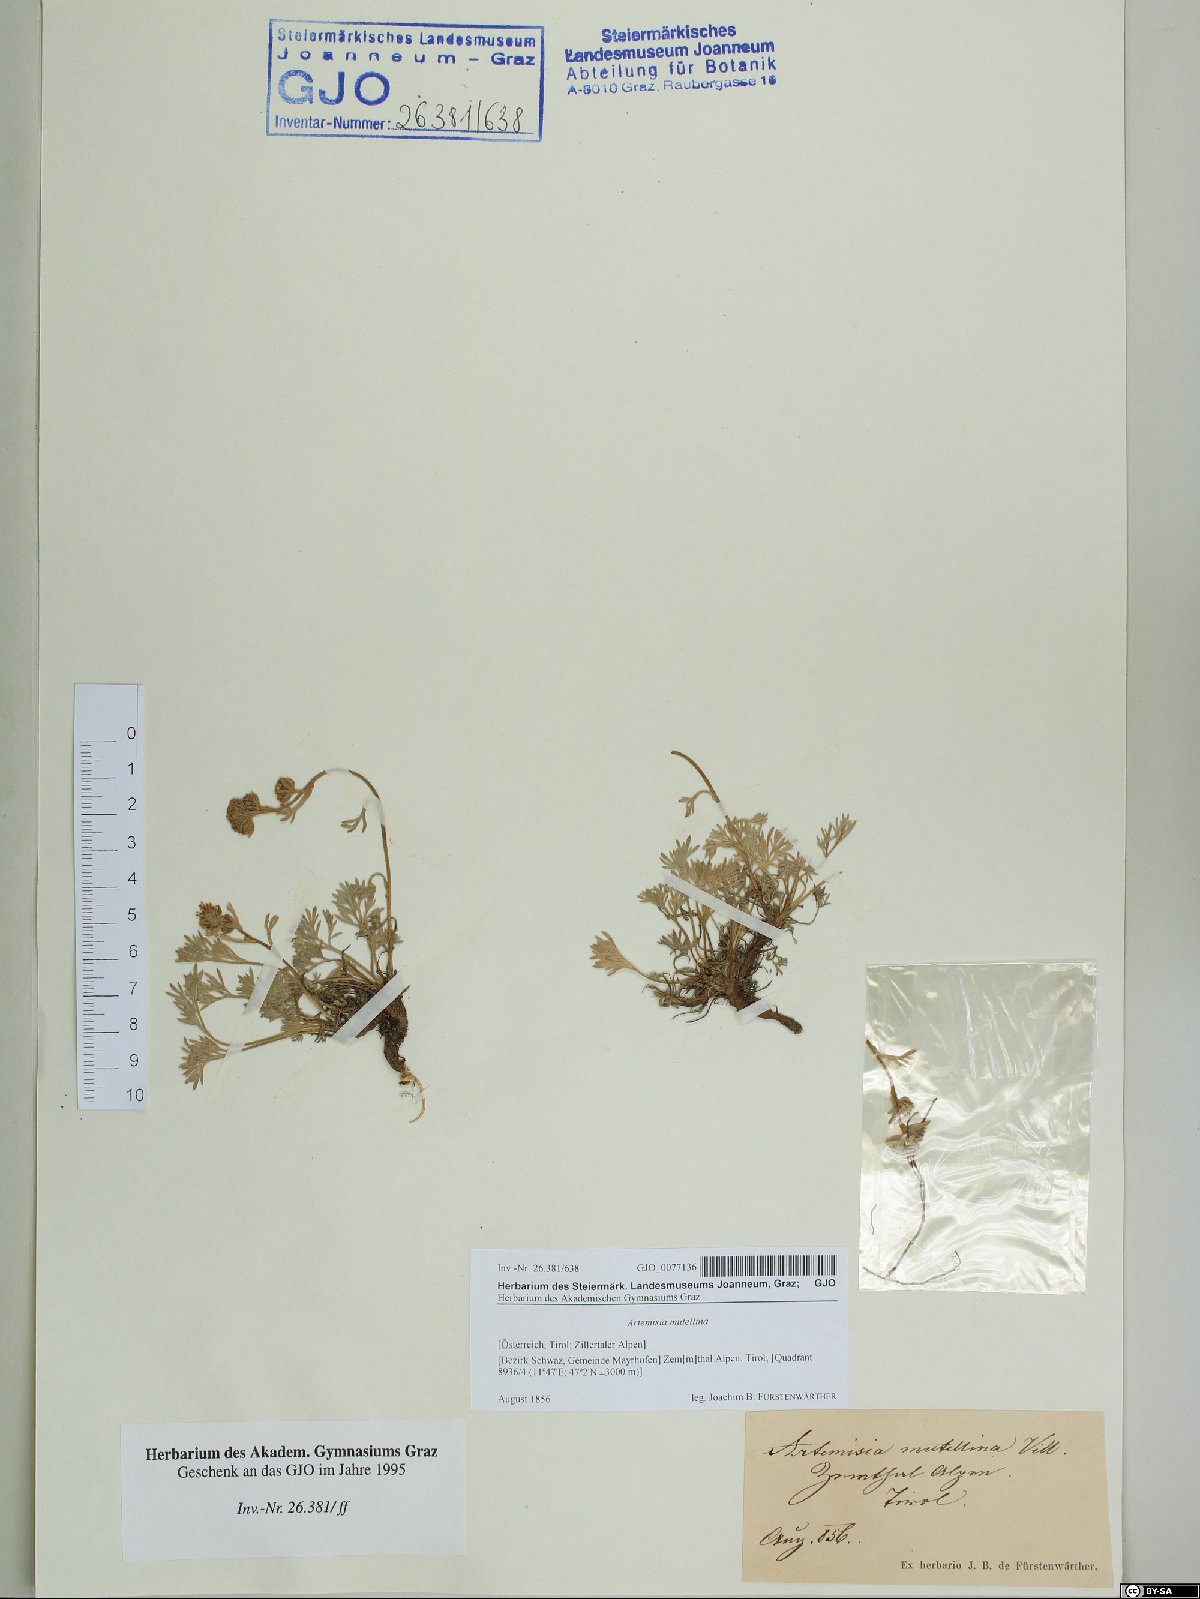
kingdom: Plantae
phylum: Tracheophyta
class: Magnoliopsida
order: Asterales
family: Asteraceae
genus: Artemisia
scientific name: Artemisia mutellina
